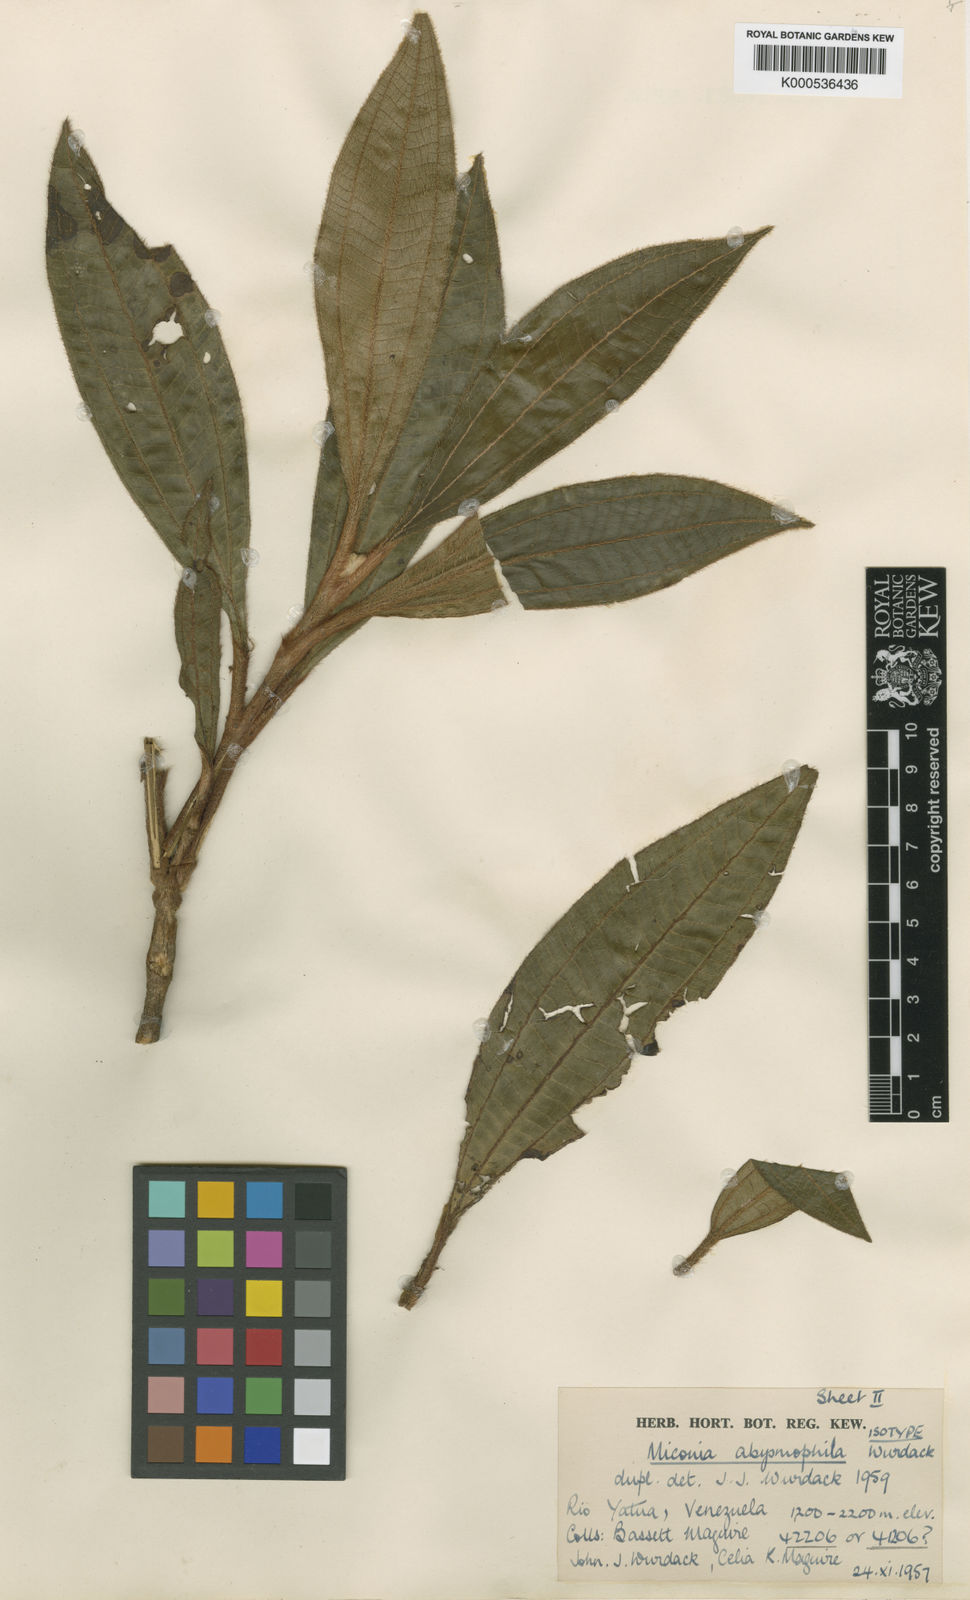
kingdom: Plantae
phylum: Tracheophyta
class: Magnoliopsida
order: Myrtales
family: Melastomataceae
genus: Miconia
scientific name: Miconia abysmophila
